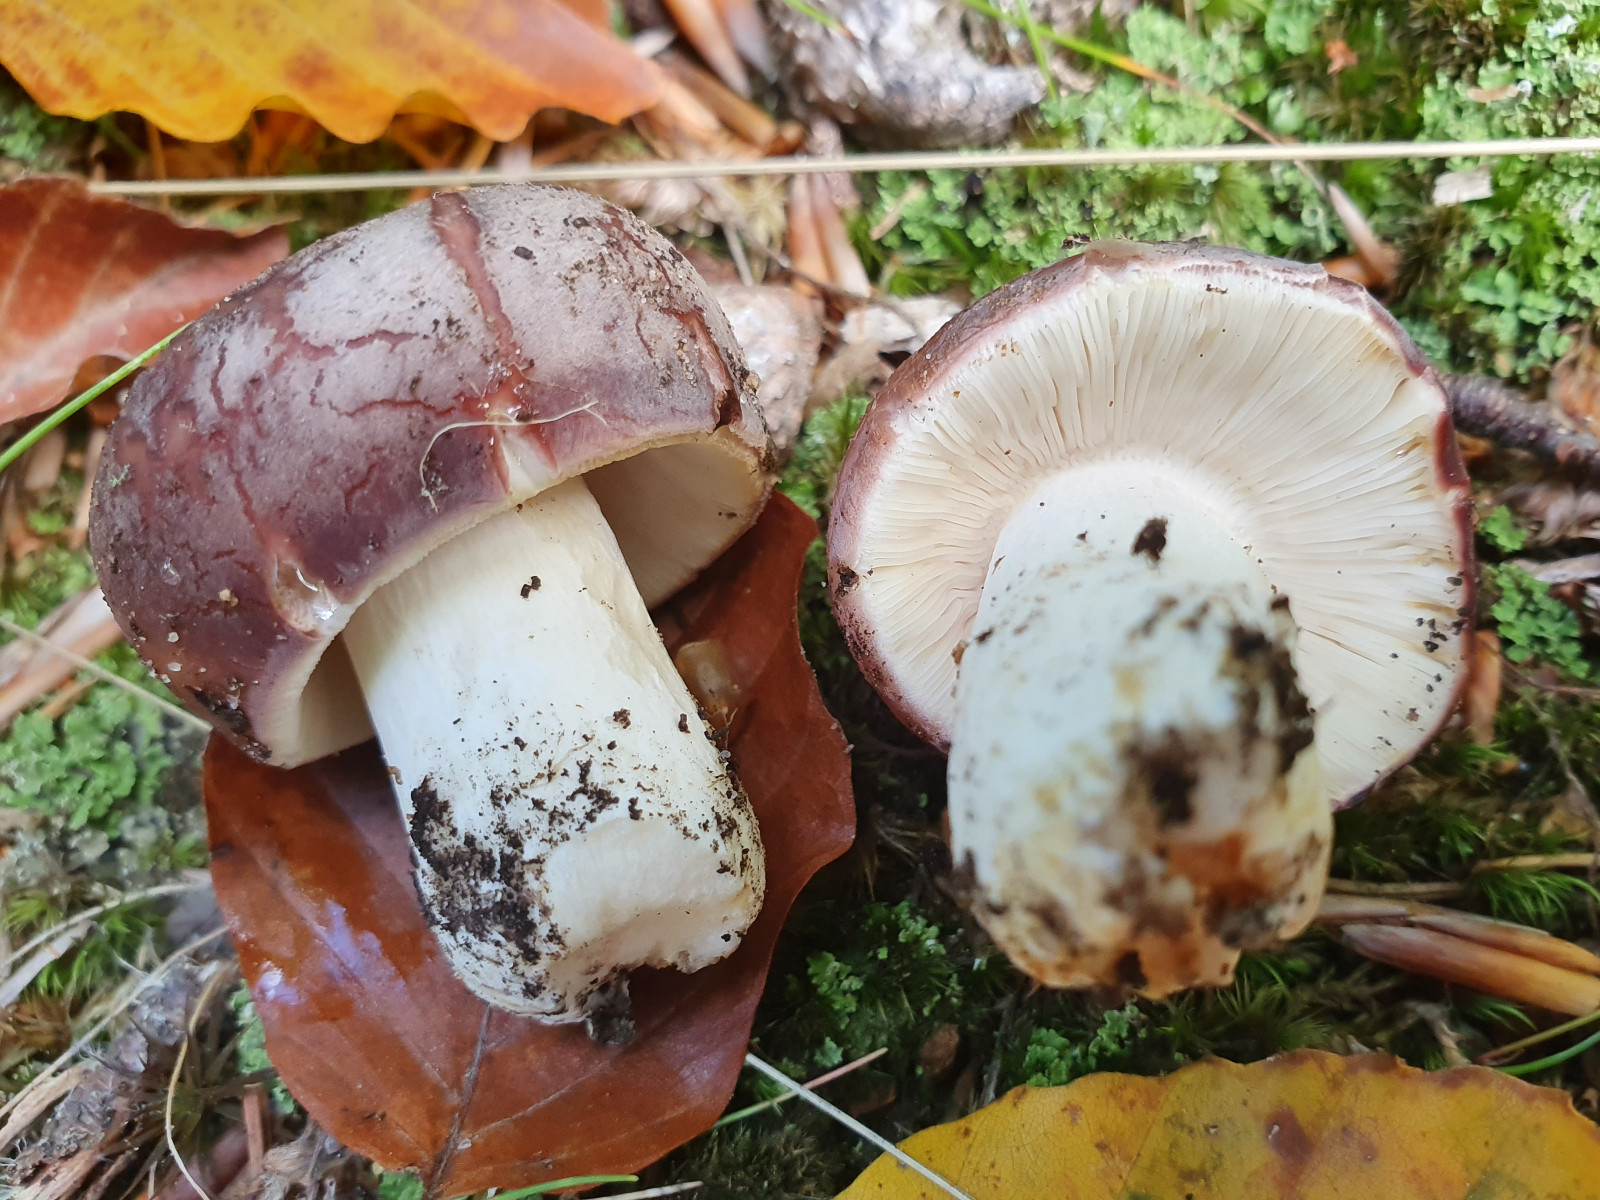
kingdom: Fungi
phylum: Basidiomycota
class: Agaricomycetes
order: Russulales
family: Russulaceae
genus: Russula
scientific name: Russula
